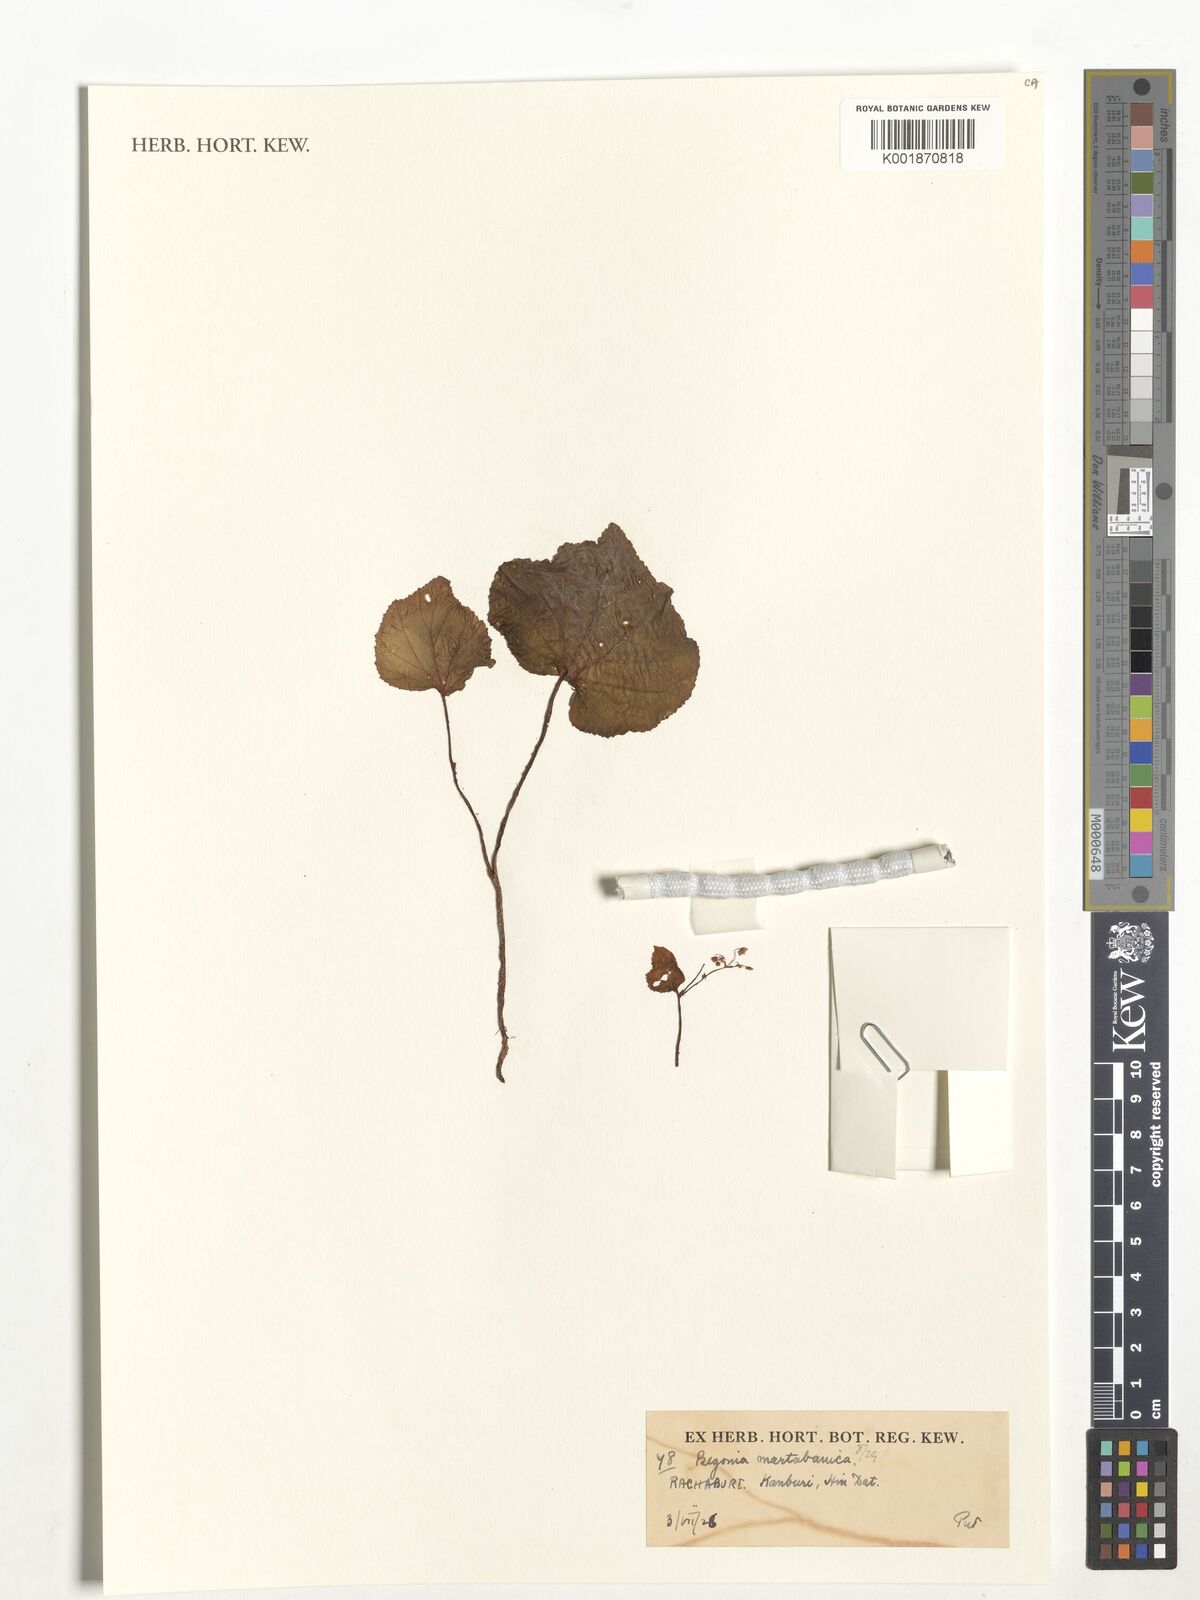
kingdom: Plantae
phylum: Tracheophyta
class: Magnoliopsida
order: Cucurbitales
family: Begoniaceae
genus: Begonia
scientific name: Begonia martabanica
